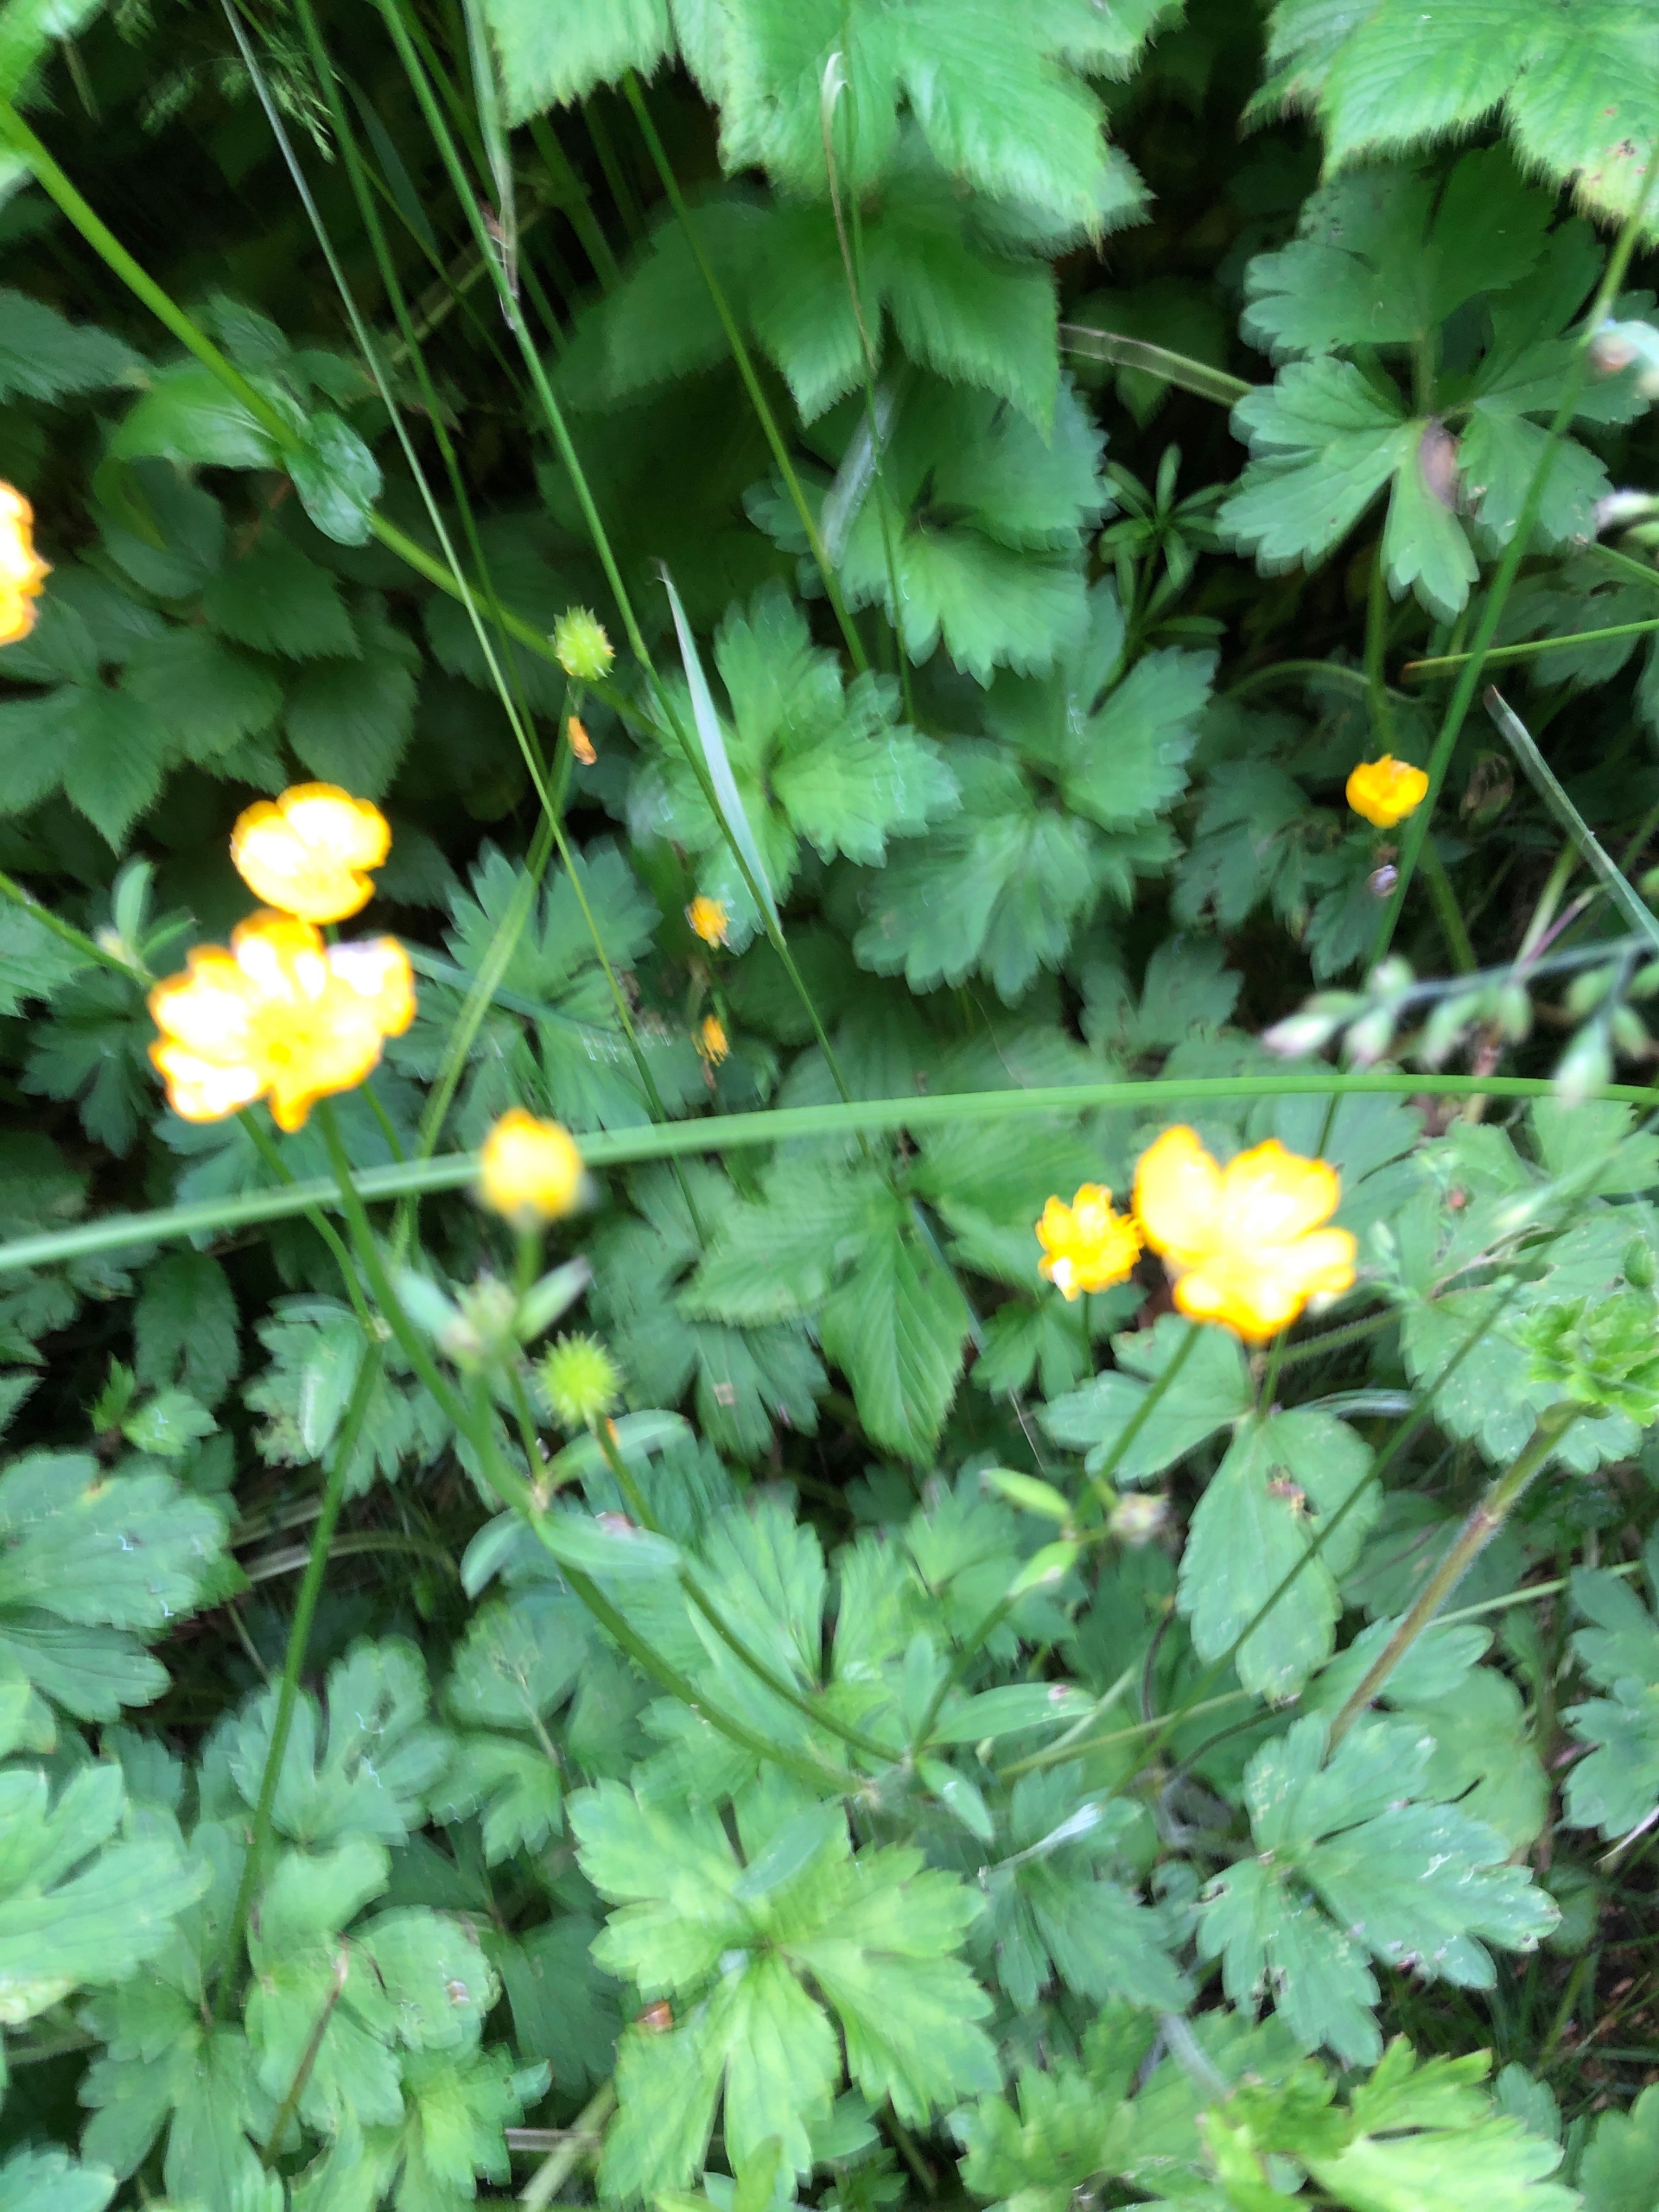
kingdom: Plantae
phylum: Tracheophyta
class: Magnoliopsida
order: Ranunculales
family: Ranunculaceae
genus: Ranunculus
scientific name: Ranunculus lanuginosus
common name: Uldhåret ranunkel
